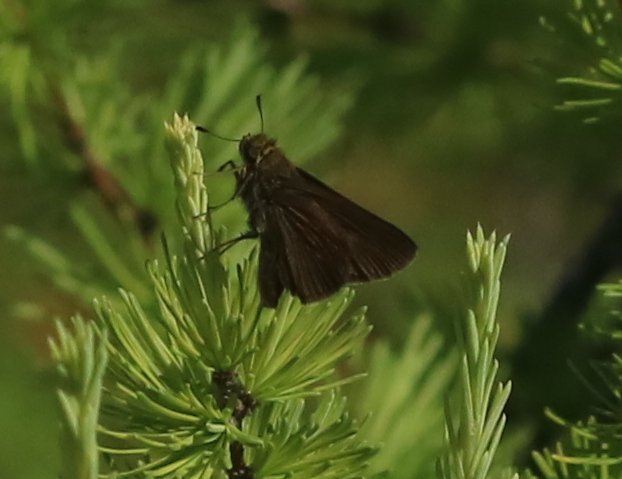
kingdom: Animalia
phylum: Arthropoda
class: Insecta
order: Lepidoptera
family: Hesperiidae
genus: Euphyes
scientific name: Euphyes vestris
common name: Dun Skipper
